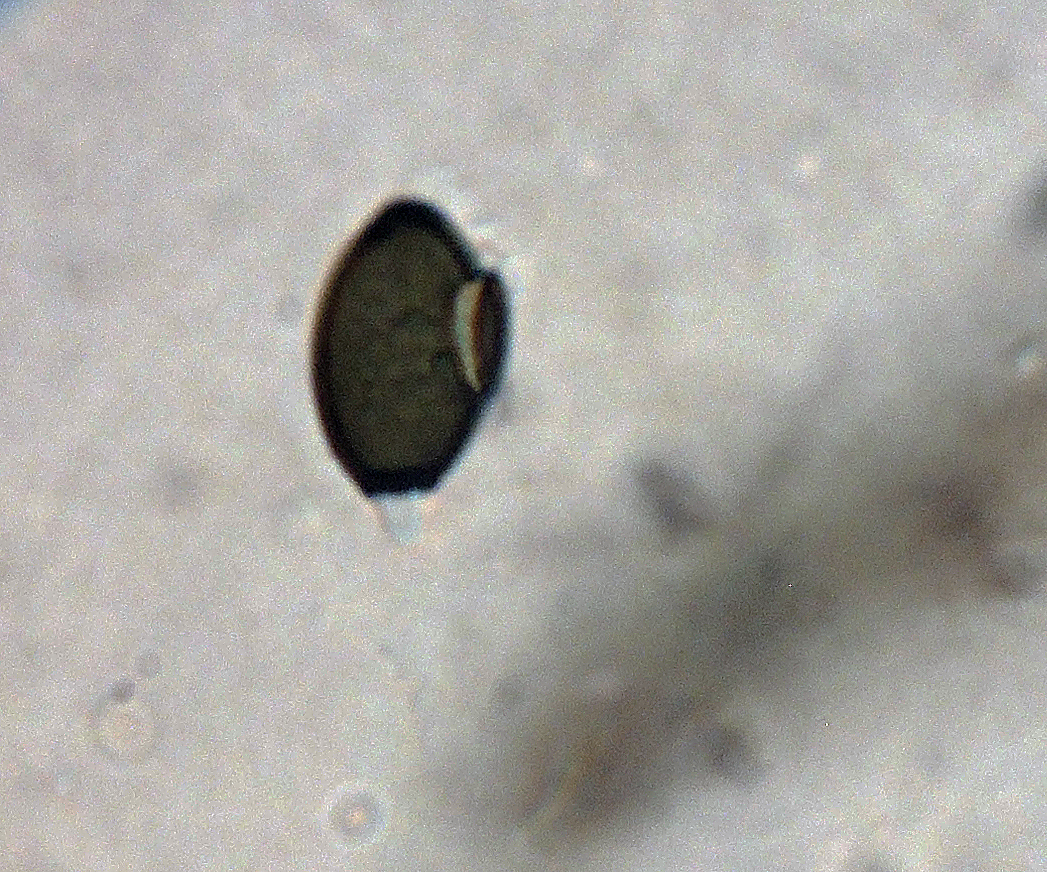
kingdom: Fungi
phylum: Ascomycota
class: Sordariomycetes
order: Sordariales
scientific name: Sordariales
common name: kernesvampordenen
